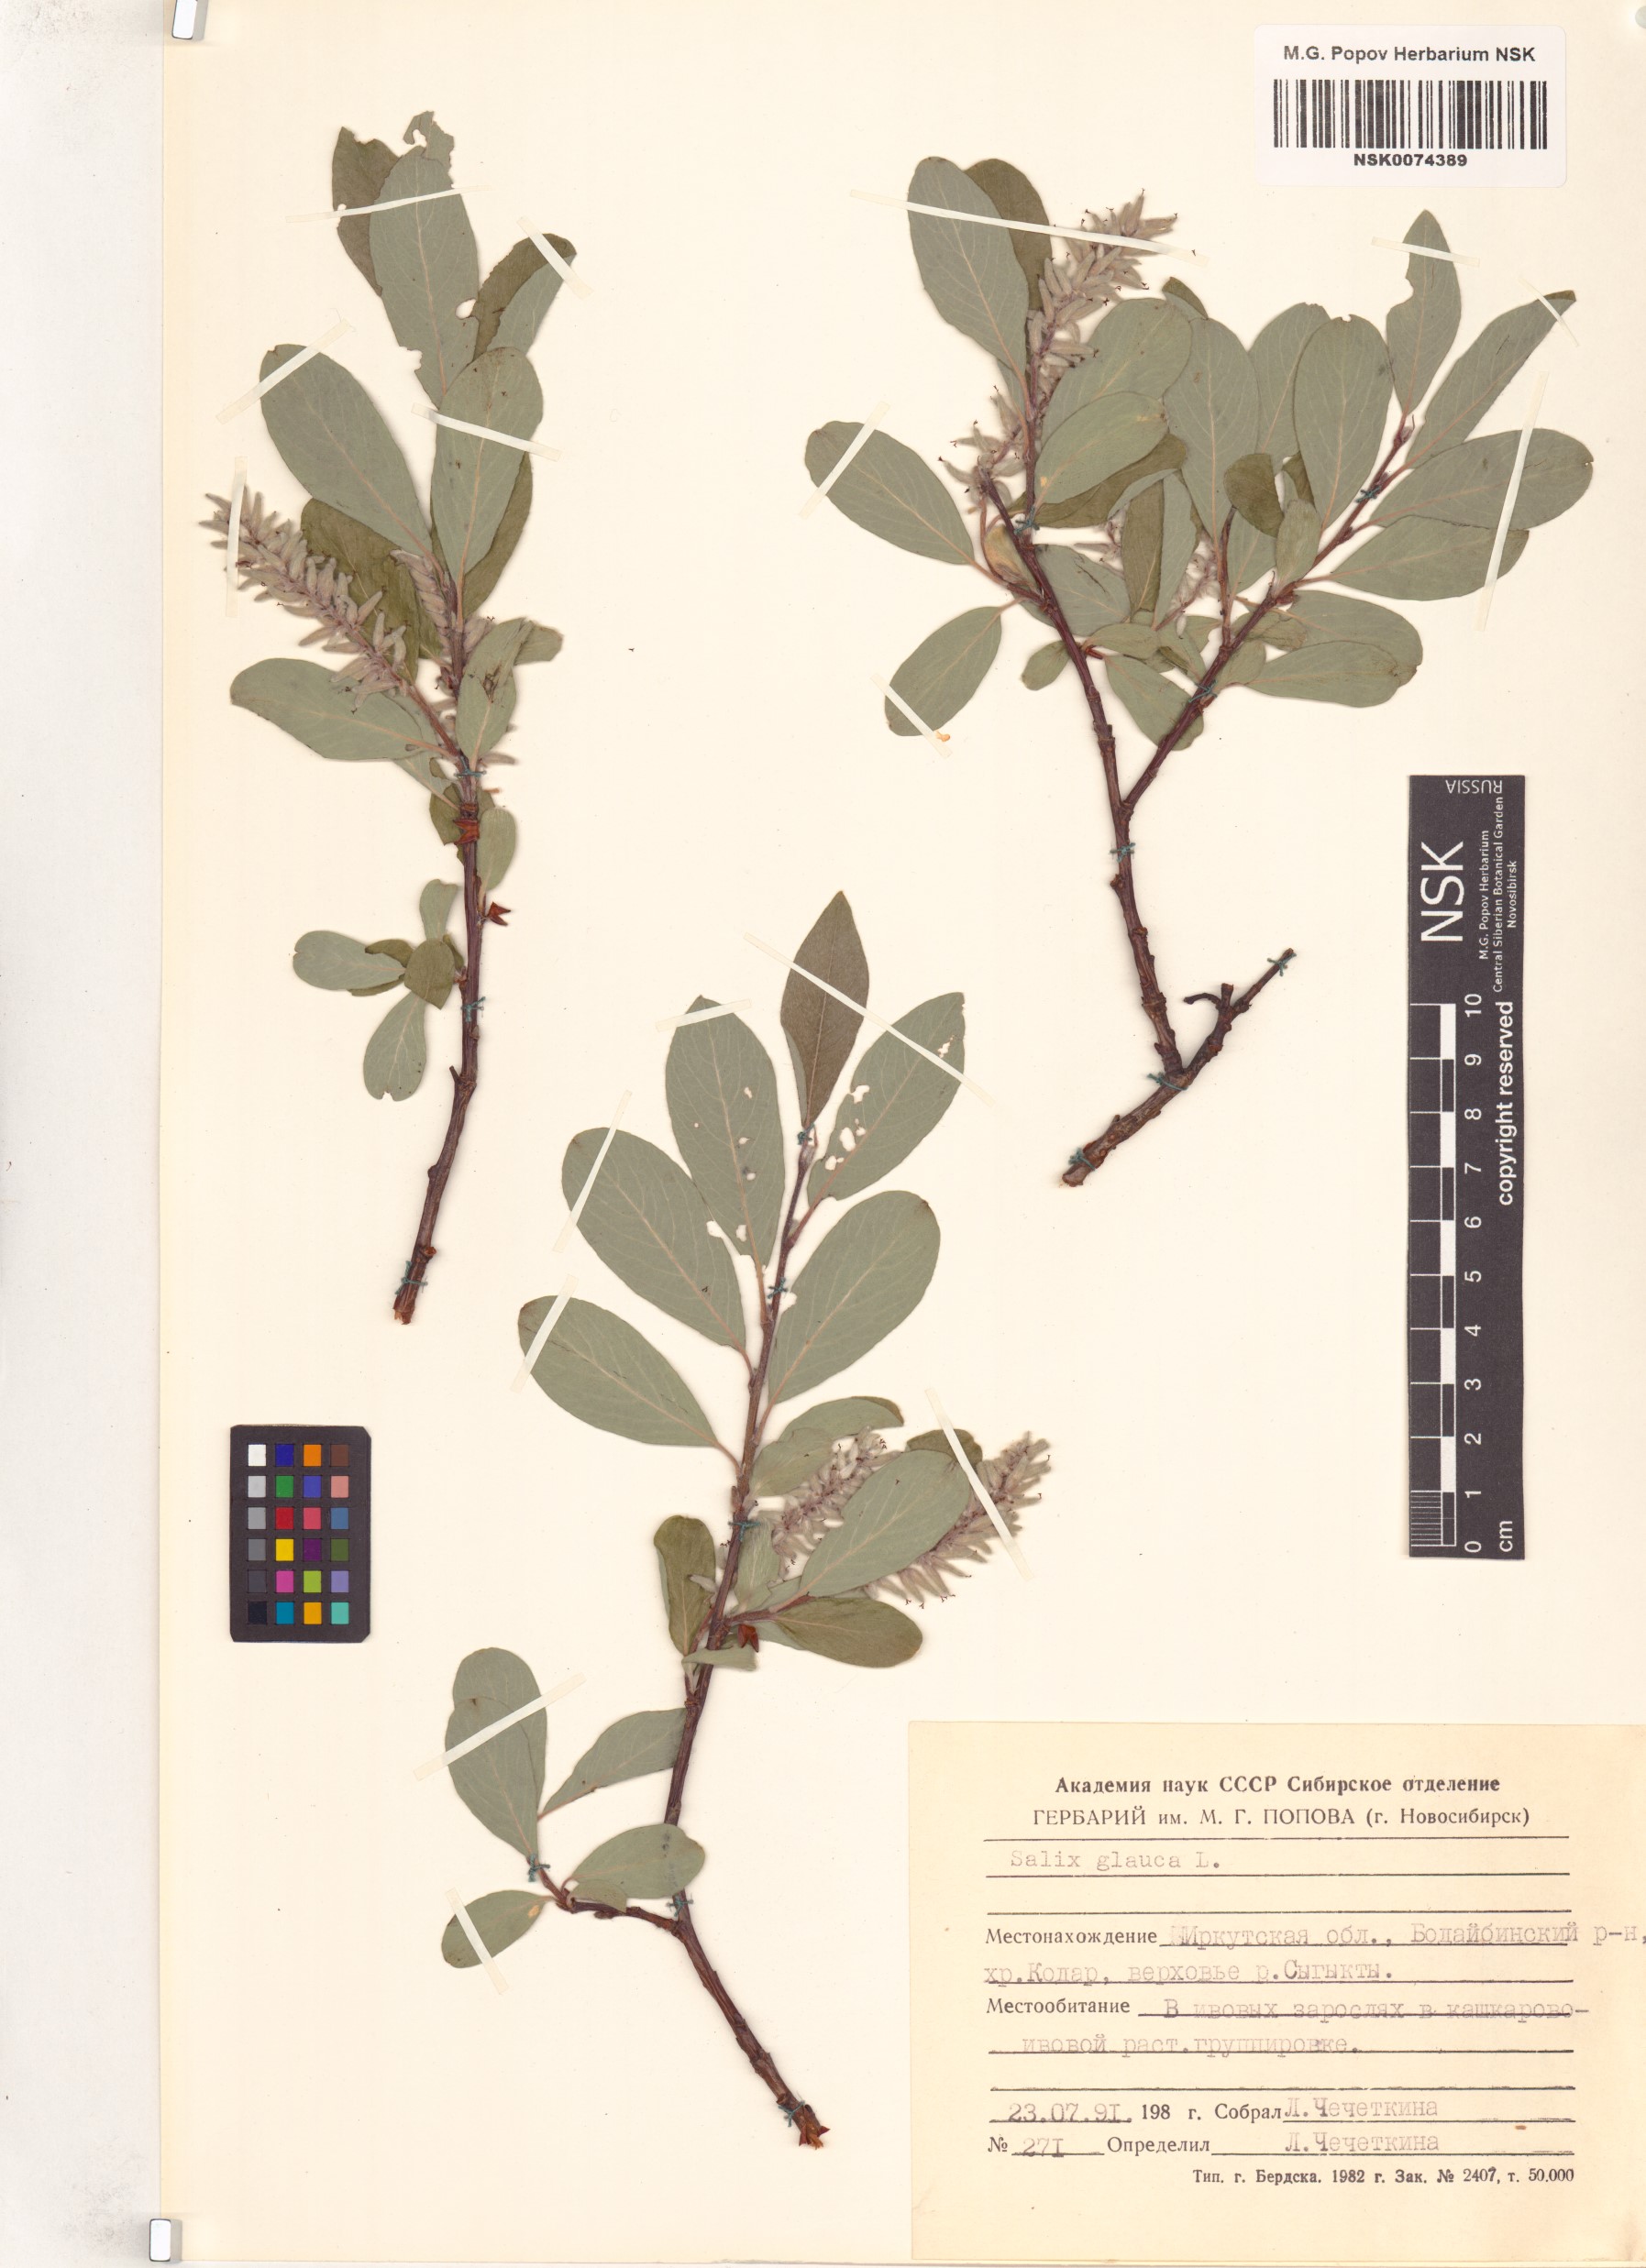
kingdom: Plantae
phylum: Tracheophyta
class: Magnoliopsida
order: Malpighiales
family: Salicaceae
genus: Salix
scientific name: Salix glauca
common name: Glaucous willow
